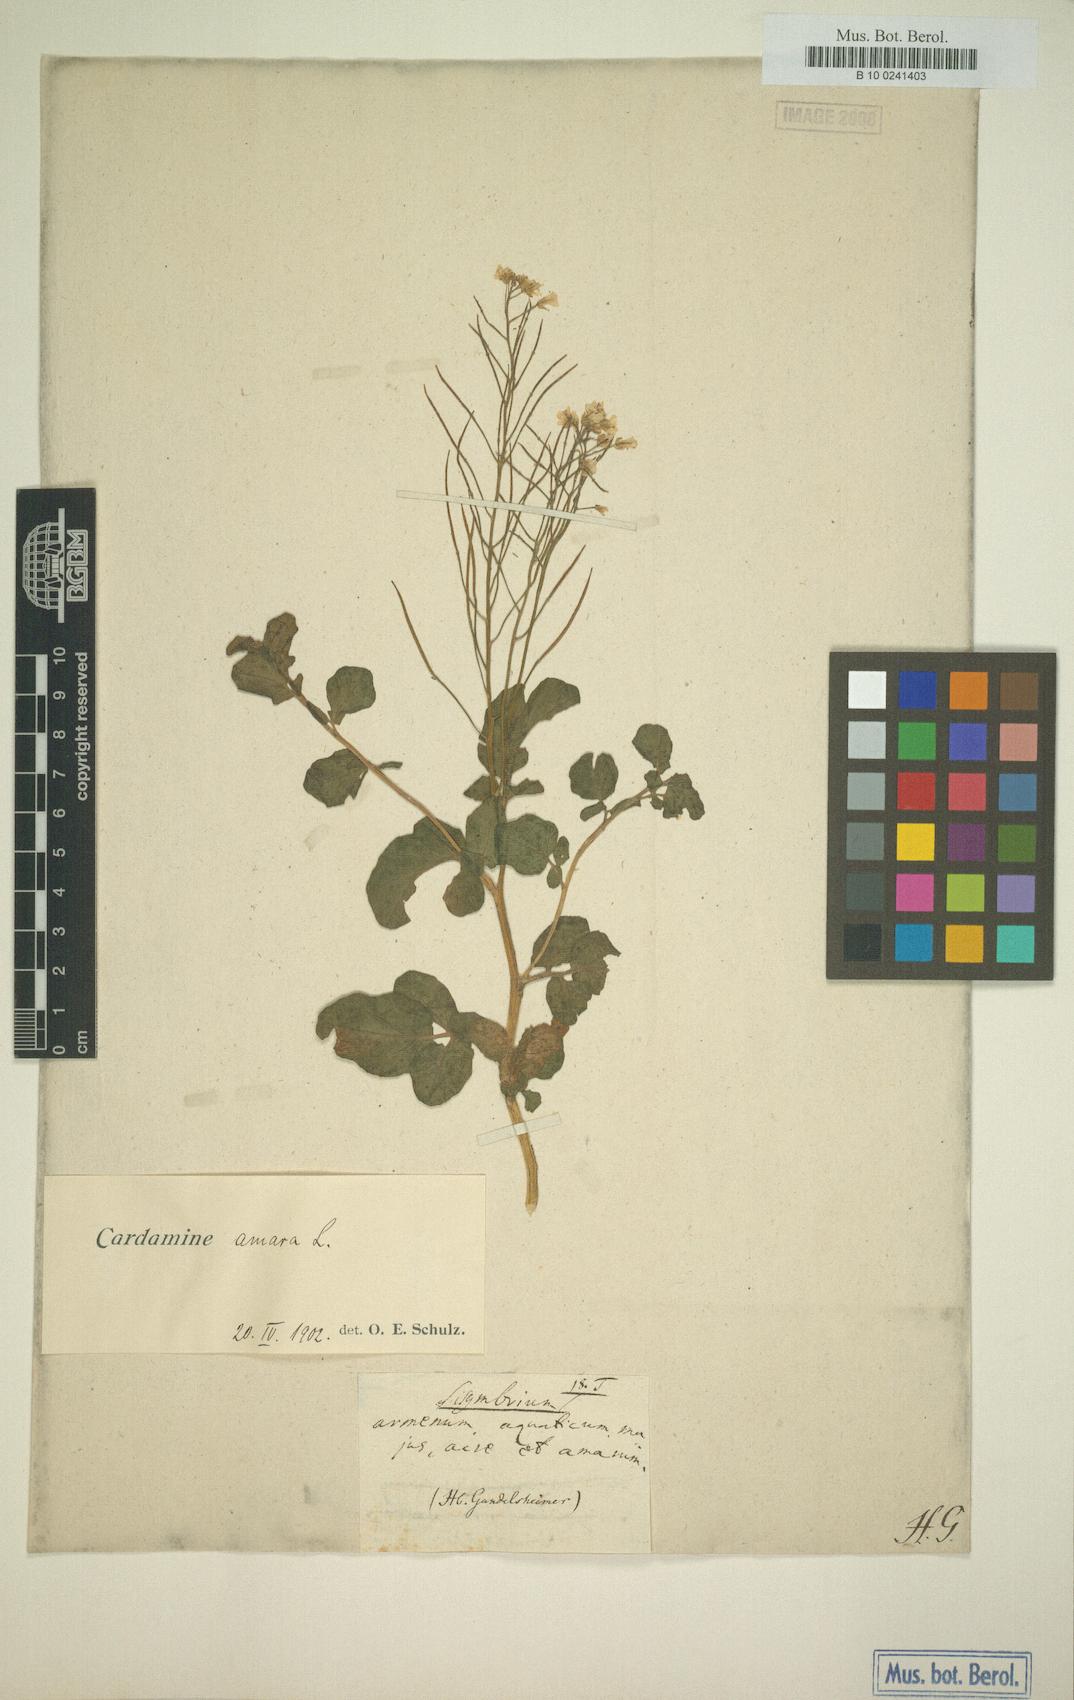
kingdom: Plantae
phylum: Tracheophyta
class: Magnoliopsida
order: Brassicales
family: Brassicaceae
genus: Cardamine
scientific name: Cardamine amara
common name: Large bitter-cress
